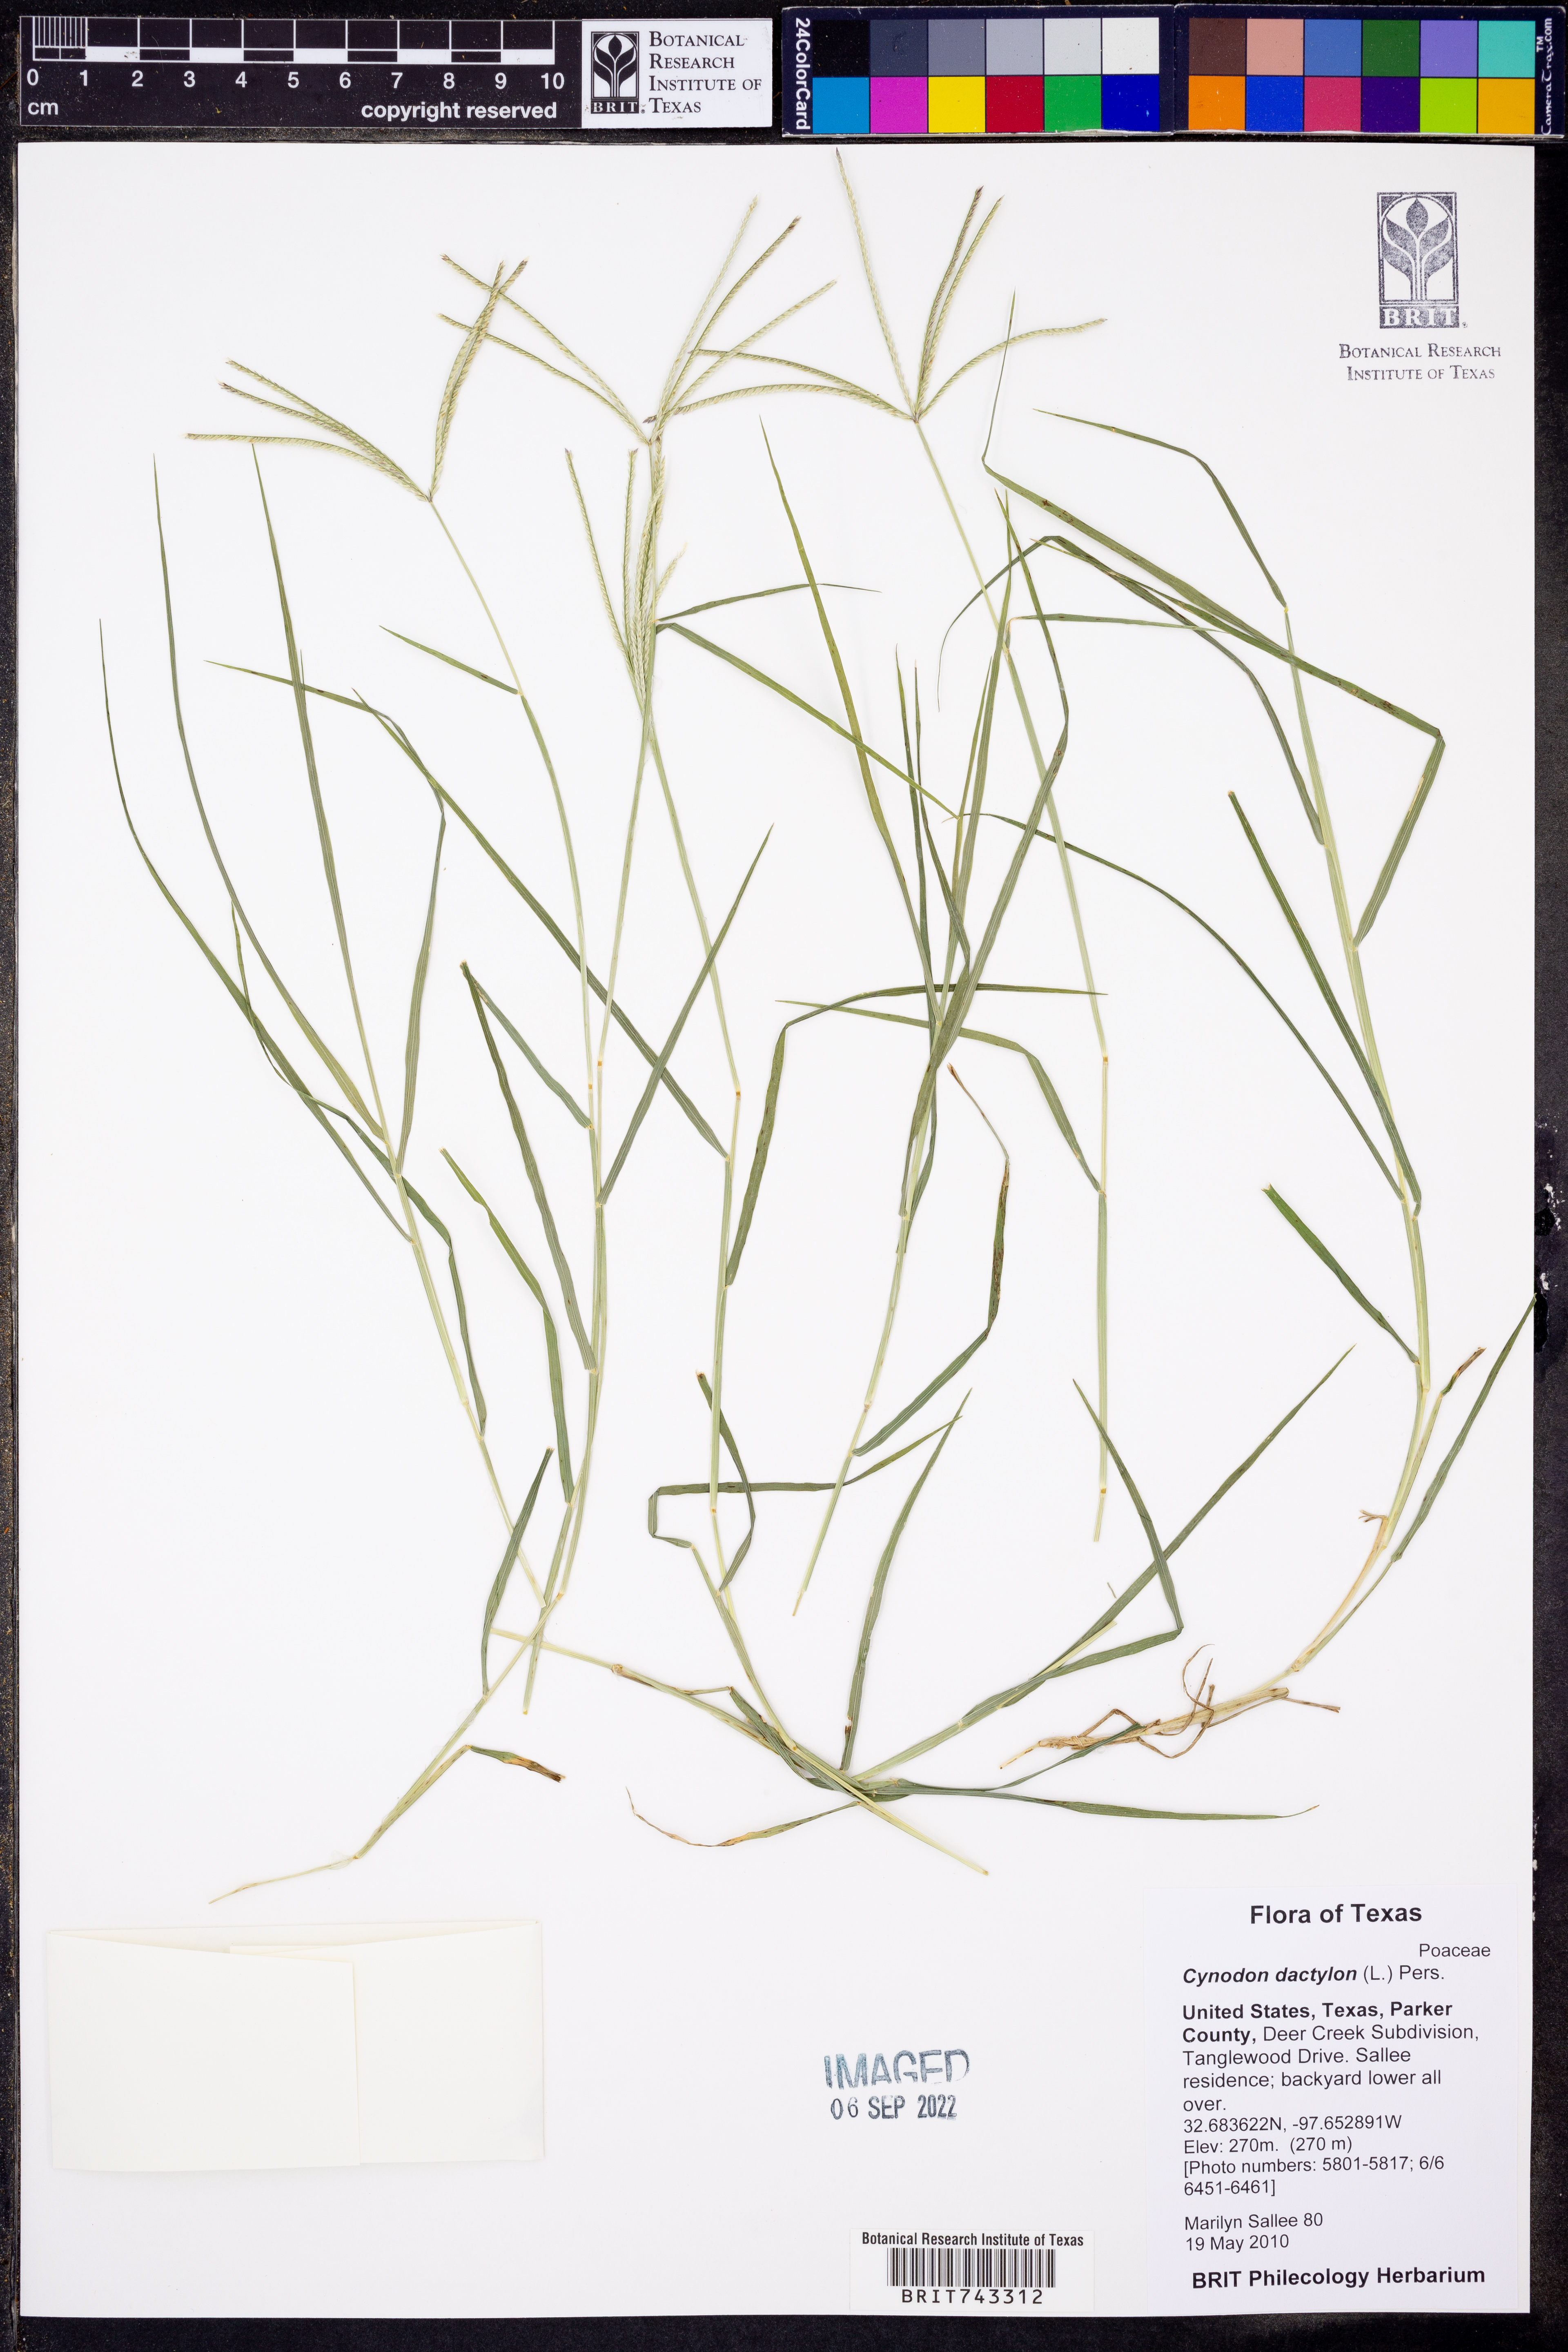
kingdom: Plantae
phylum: Tracheophyta
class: Liliopsida
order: Poales
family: Poaceae
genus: Cynodon
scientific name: Cynodon dactylon
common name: Bermuda grass
